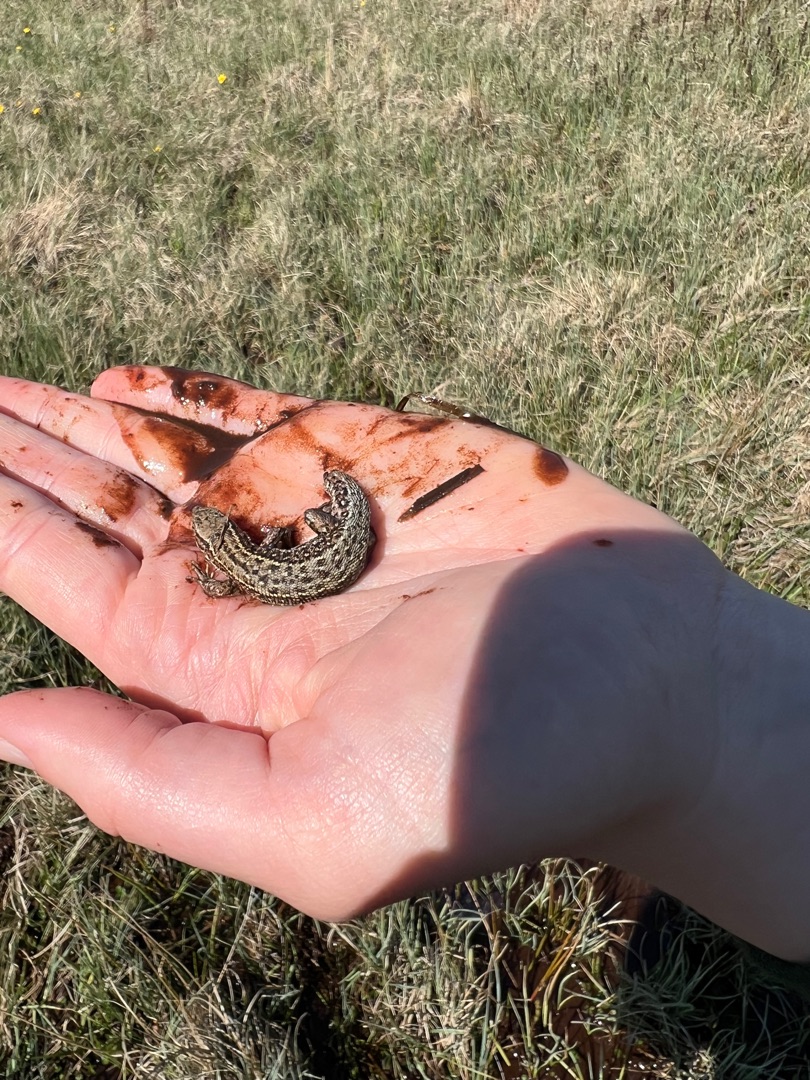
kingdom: Animalia
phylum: Chordata
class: Squamata
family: Lacertidae
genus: Zootoca
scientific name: Zootoca vivipara
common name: Skovfirben
